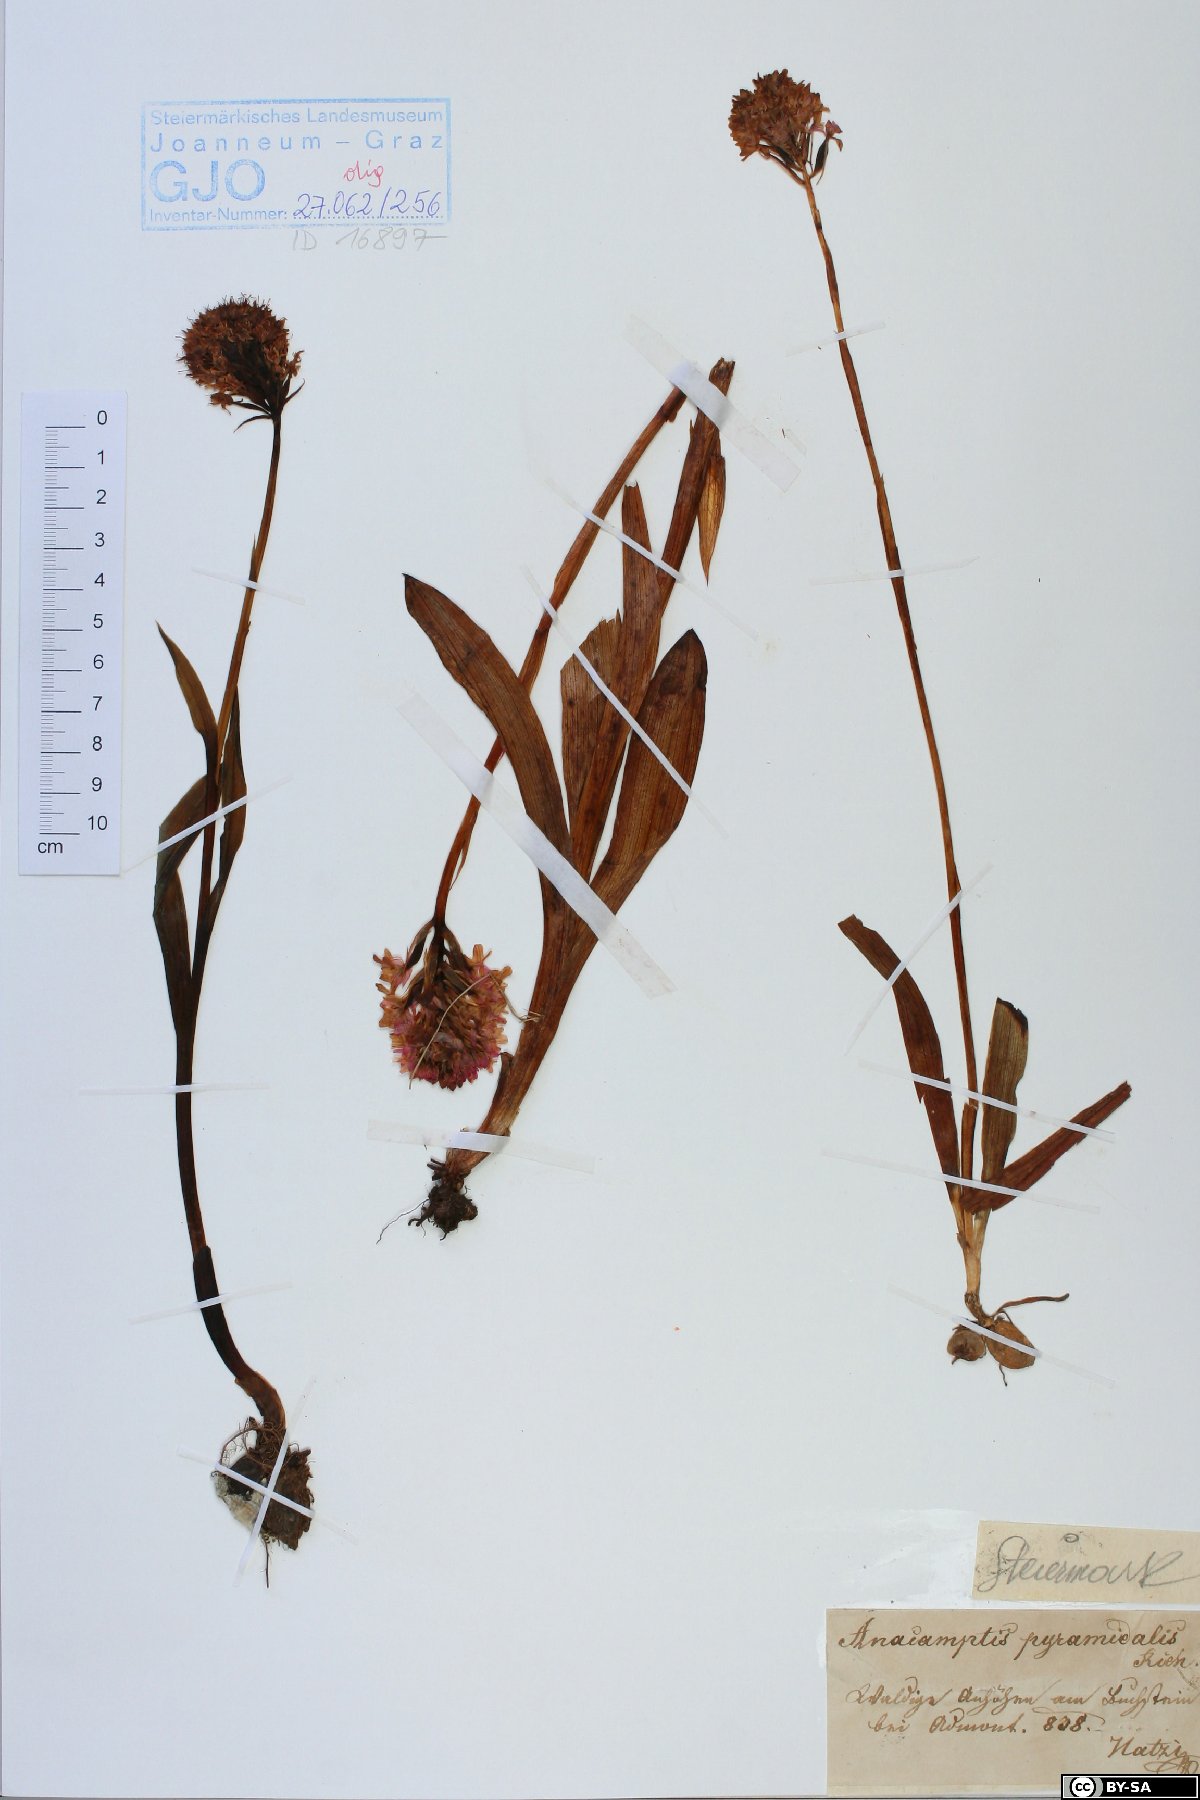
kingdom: Plantae
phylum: Tracheophyta
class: Liliopsida
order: Asparagales
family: Orchidaceae
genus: Anacamptis
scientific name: Anacamptis pyramidalis
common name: Pyramidal orchid
